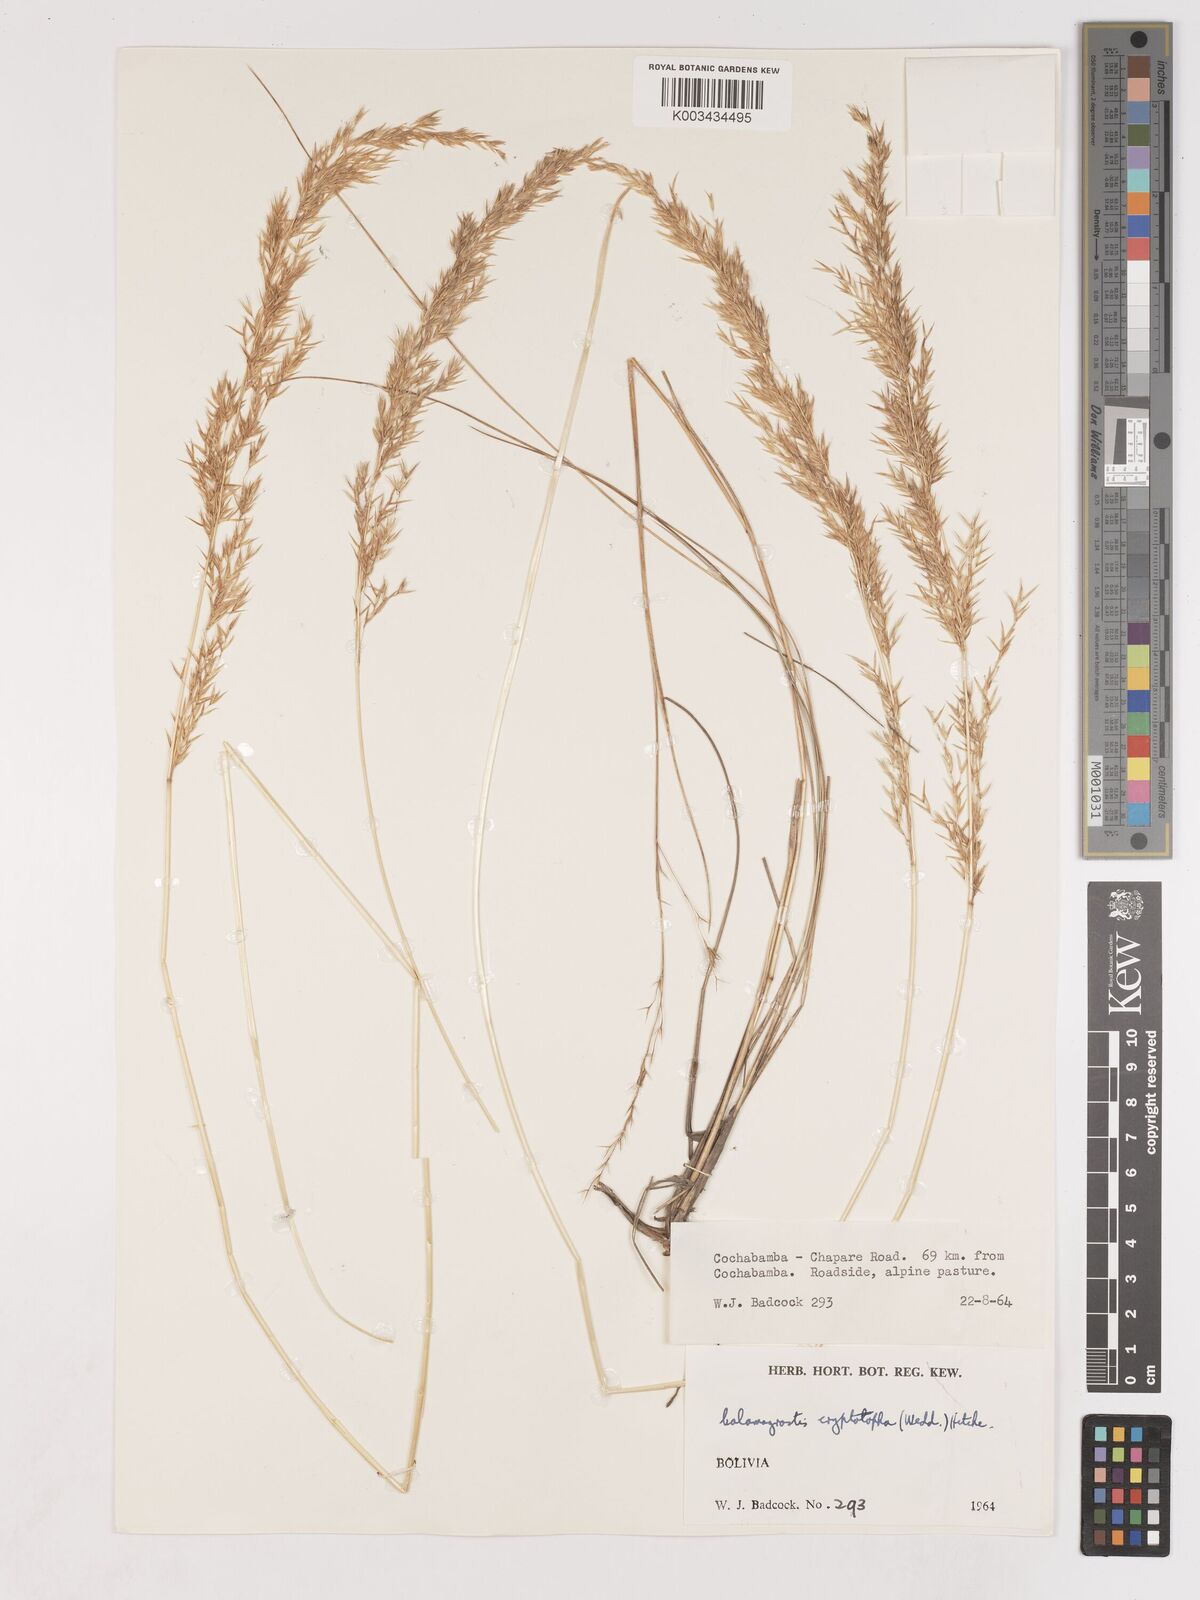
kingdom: Plantae
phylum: Tracheophyta
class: Liliopsida
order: Poales
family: Poaceae
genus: Cinnagrostis
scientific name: Cinnagrostis rigida
